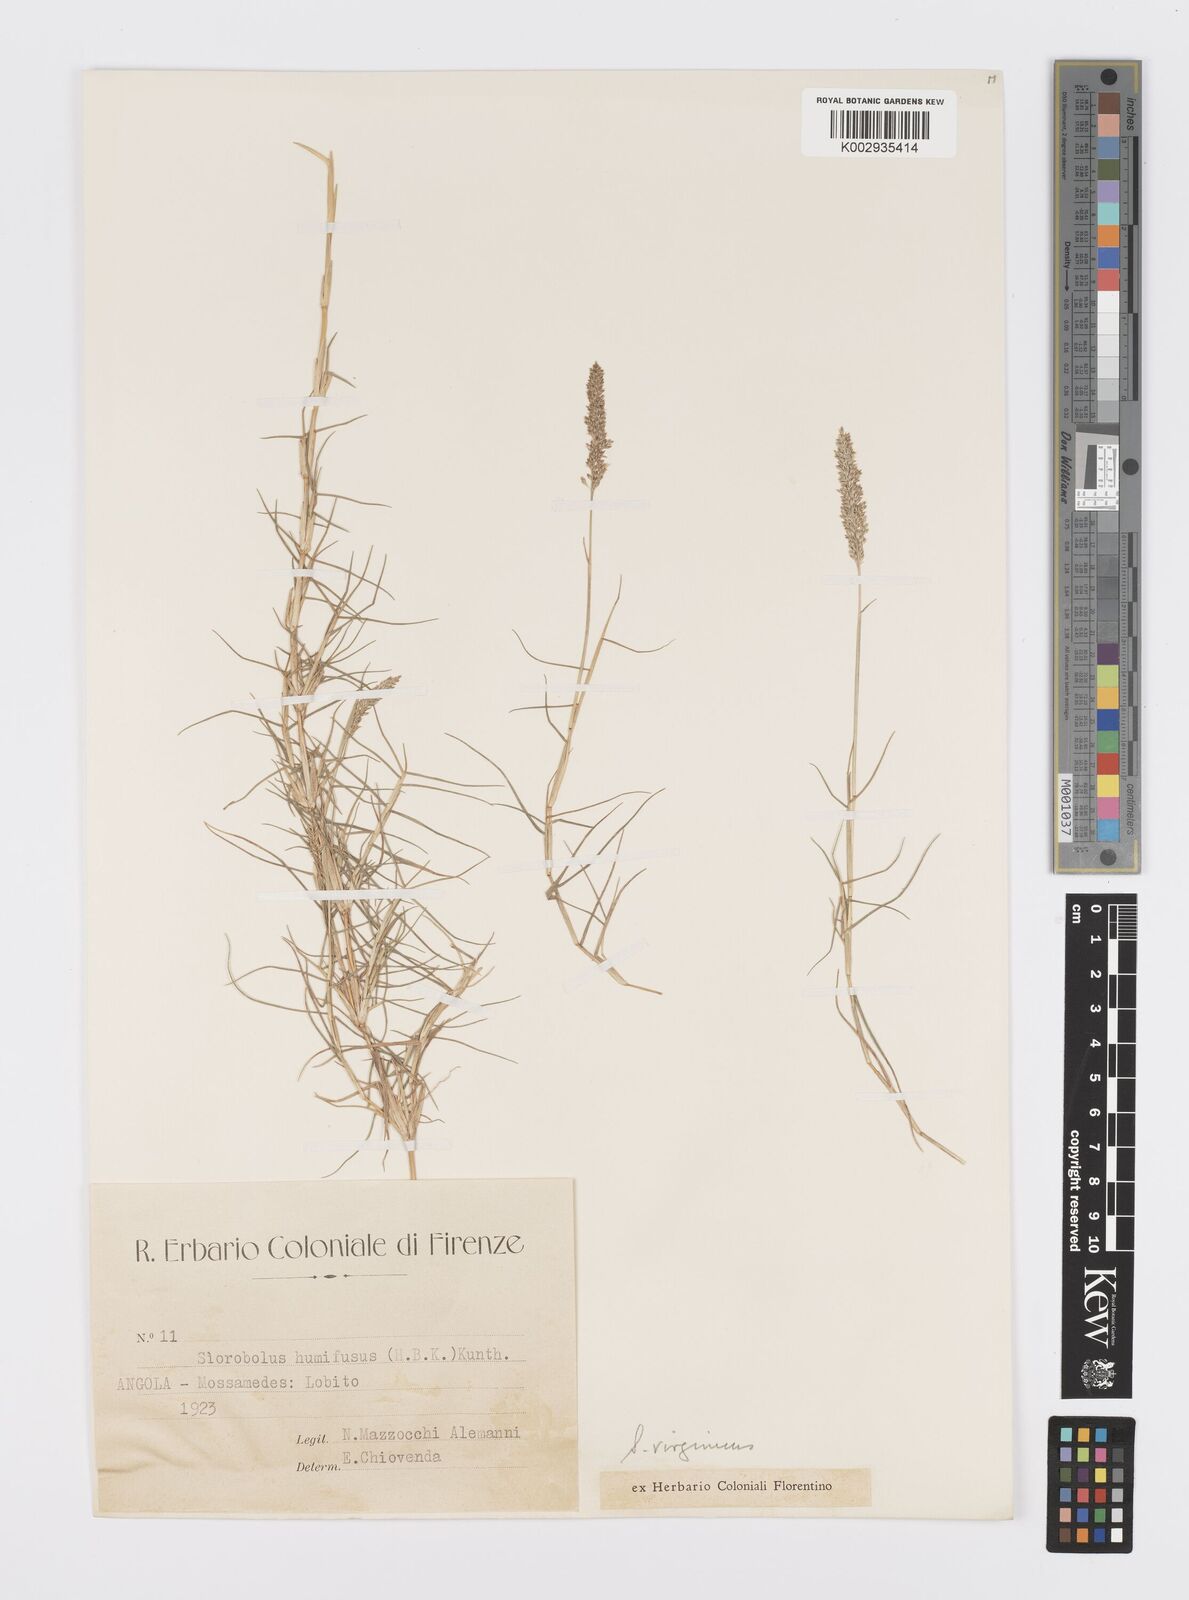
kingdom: Plantae
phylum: Tracheophyta
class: Liliopsida
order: Poales
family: Poaceae
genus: Sporobolus
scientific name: Sporobolus virginicus
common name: Beach dropseed
